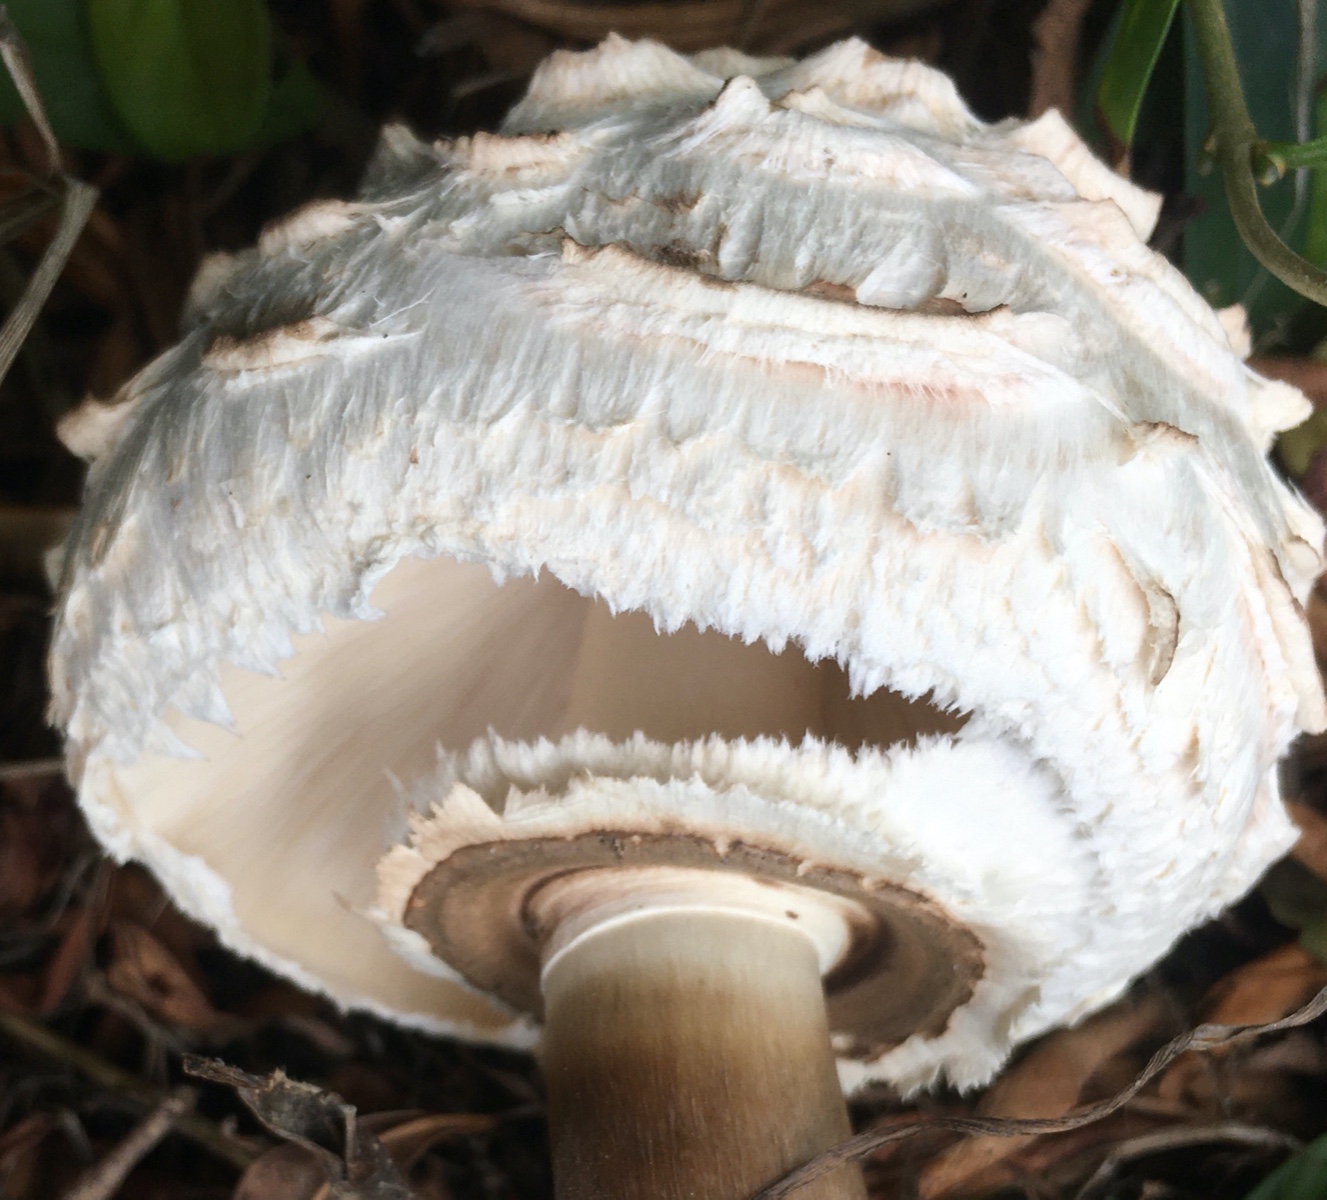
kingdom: Fungi
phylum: Basidiomycota
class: Agaricomycetes
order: Agaricales
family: Agaricaceae
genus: Chlorophyllum
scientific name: Chlorophyllum rhacodes
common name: ægte rabarberhat
